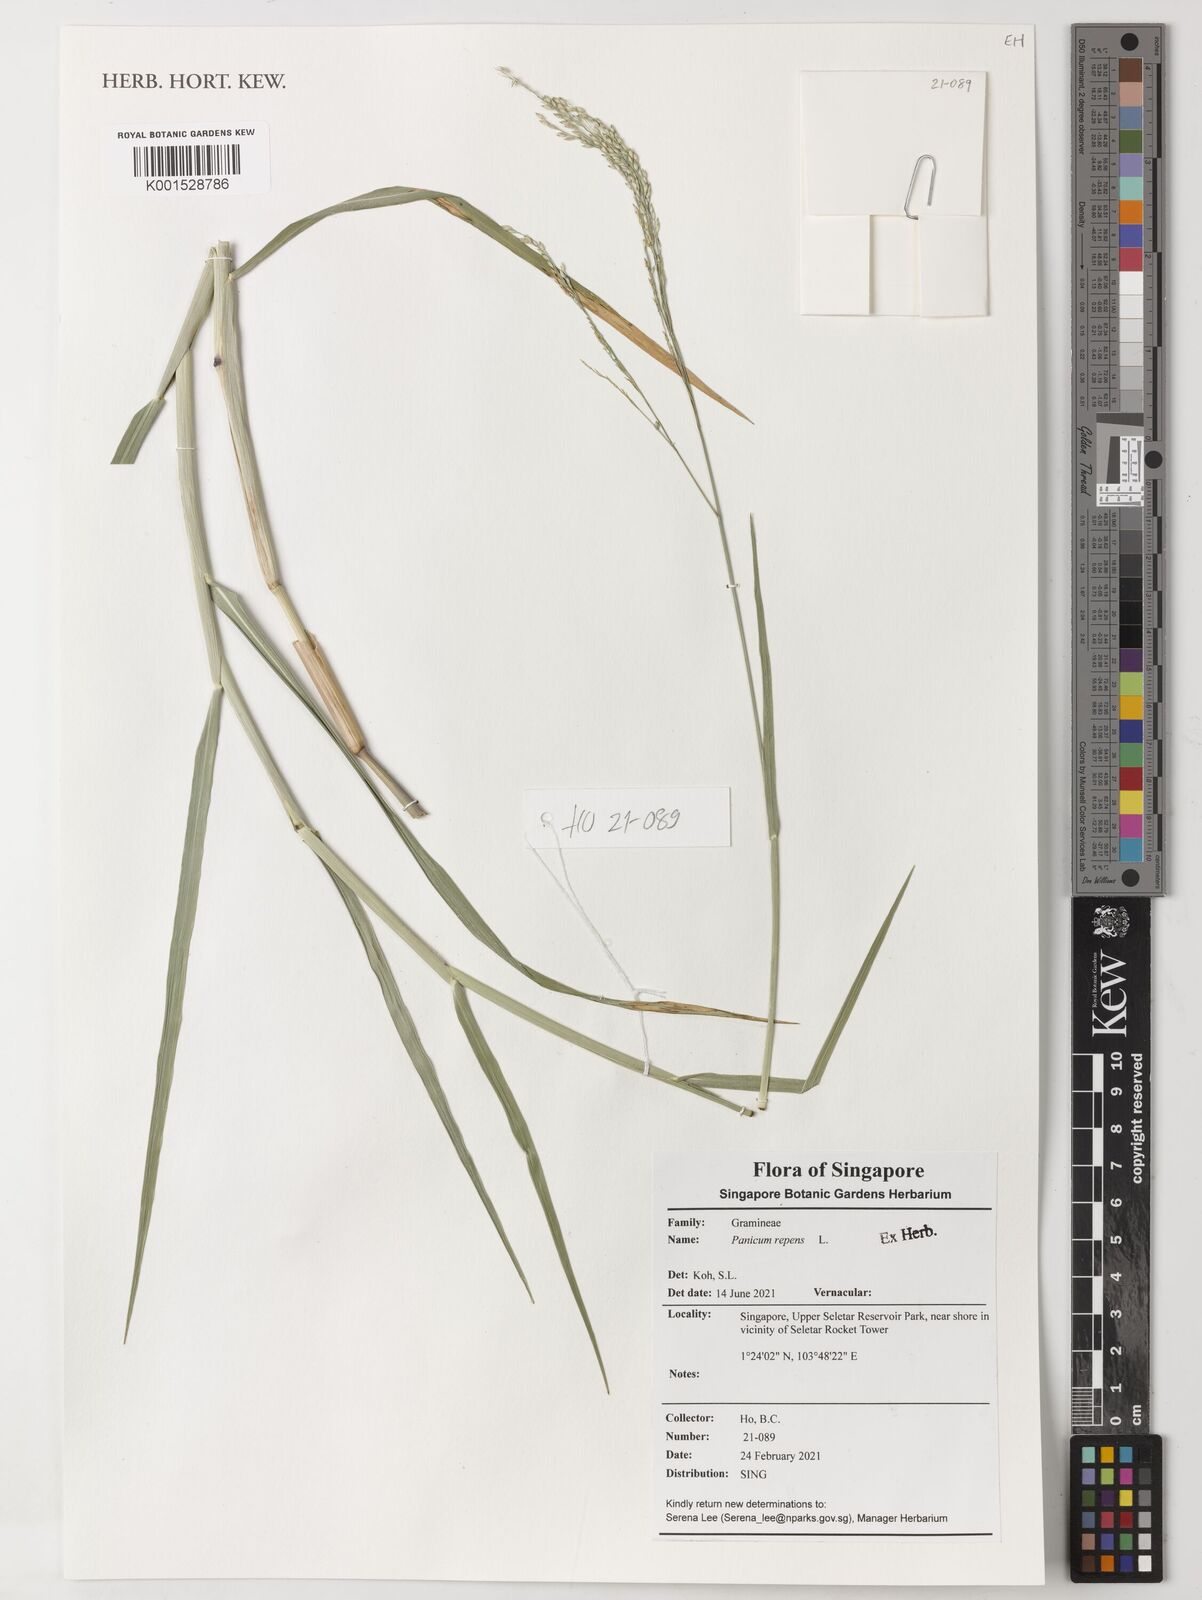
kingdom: Plantae
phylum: Tracheophyta
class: Liliopsida
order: Poales
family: Poaceae
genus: Panicum
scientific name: Panicum repens
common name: Torpedo grass
